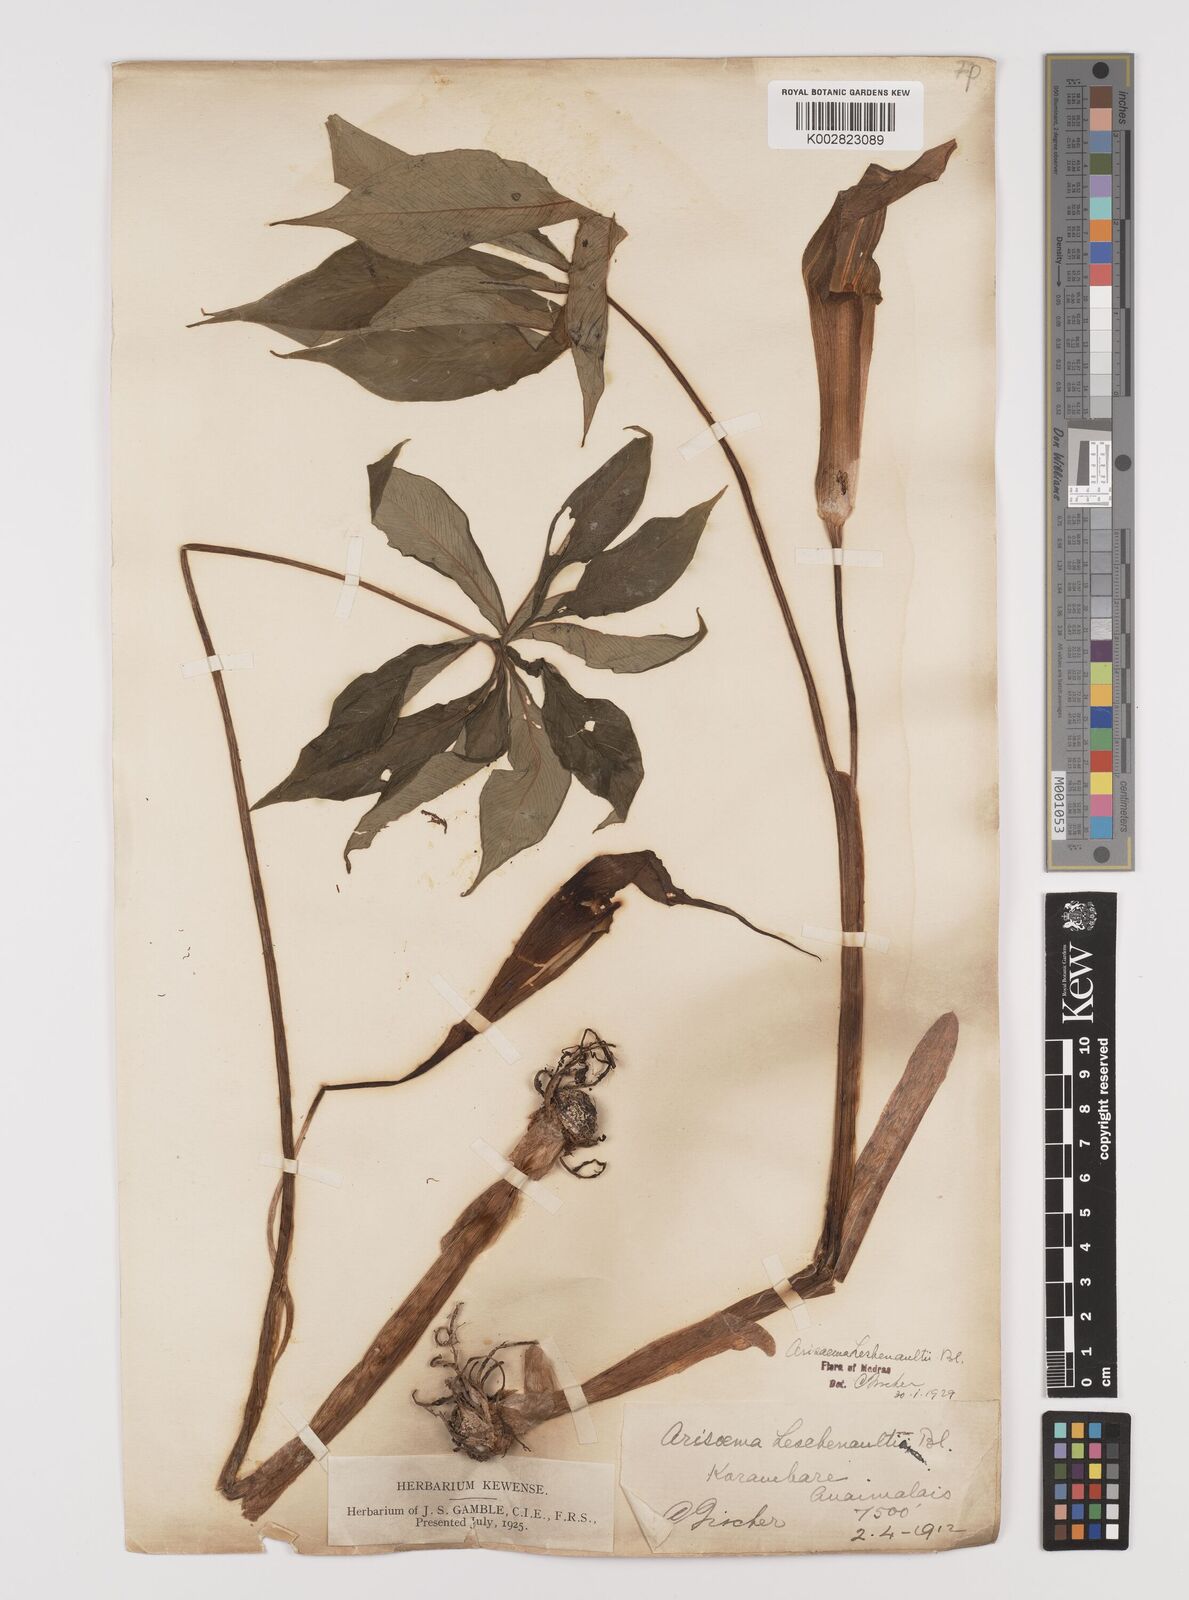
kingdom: Plantae
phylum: Tracheophyta
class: Liliopsida
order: Alismatales
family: Araceae
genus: Arisaema
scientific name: Arisaema leschenaultii
